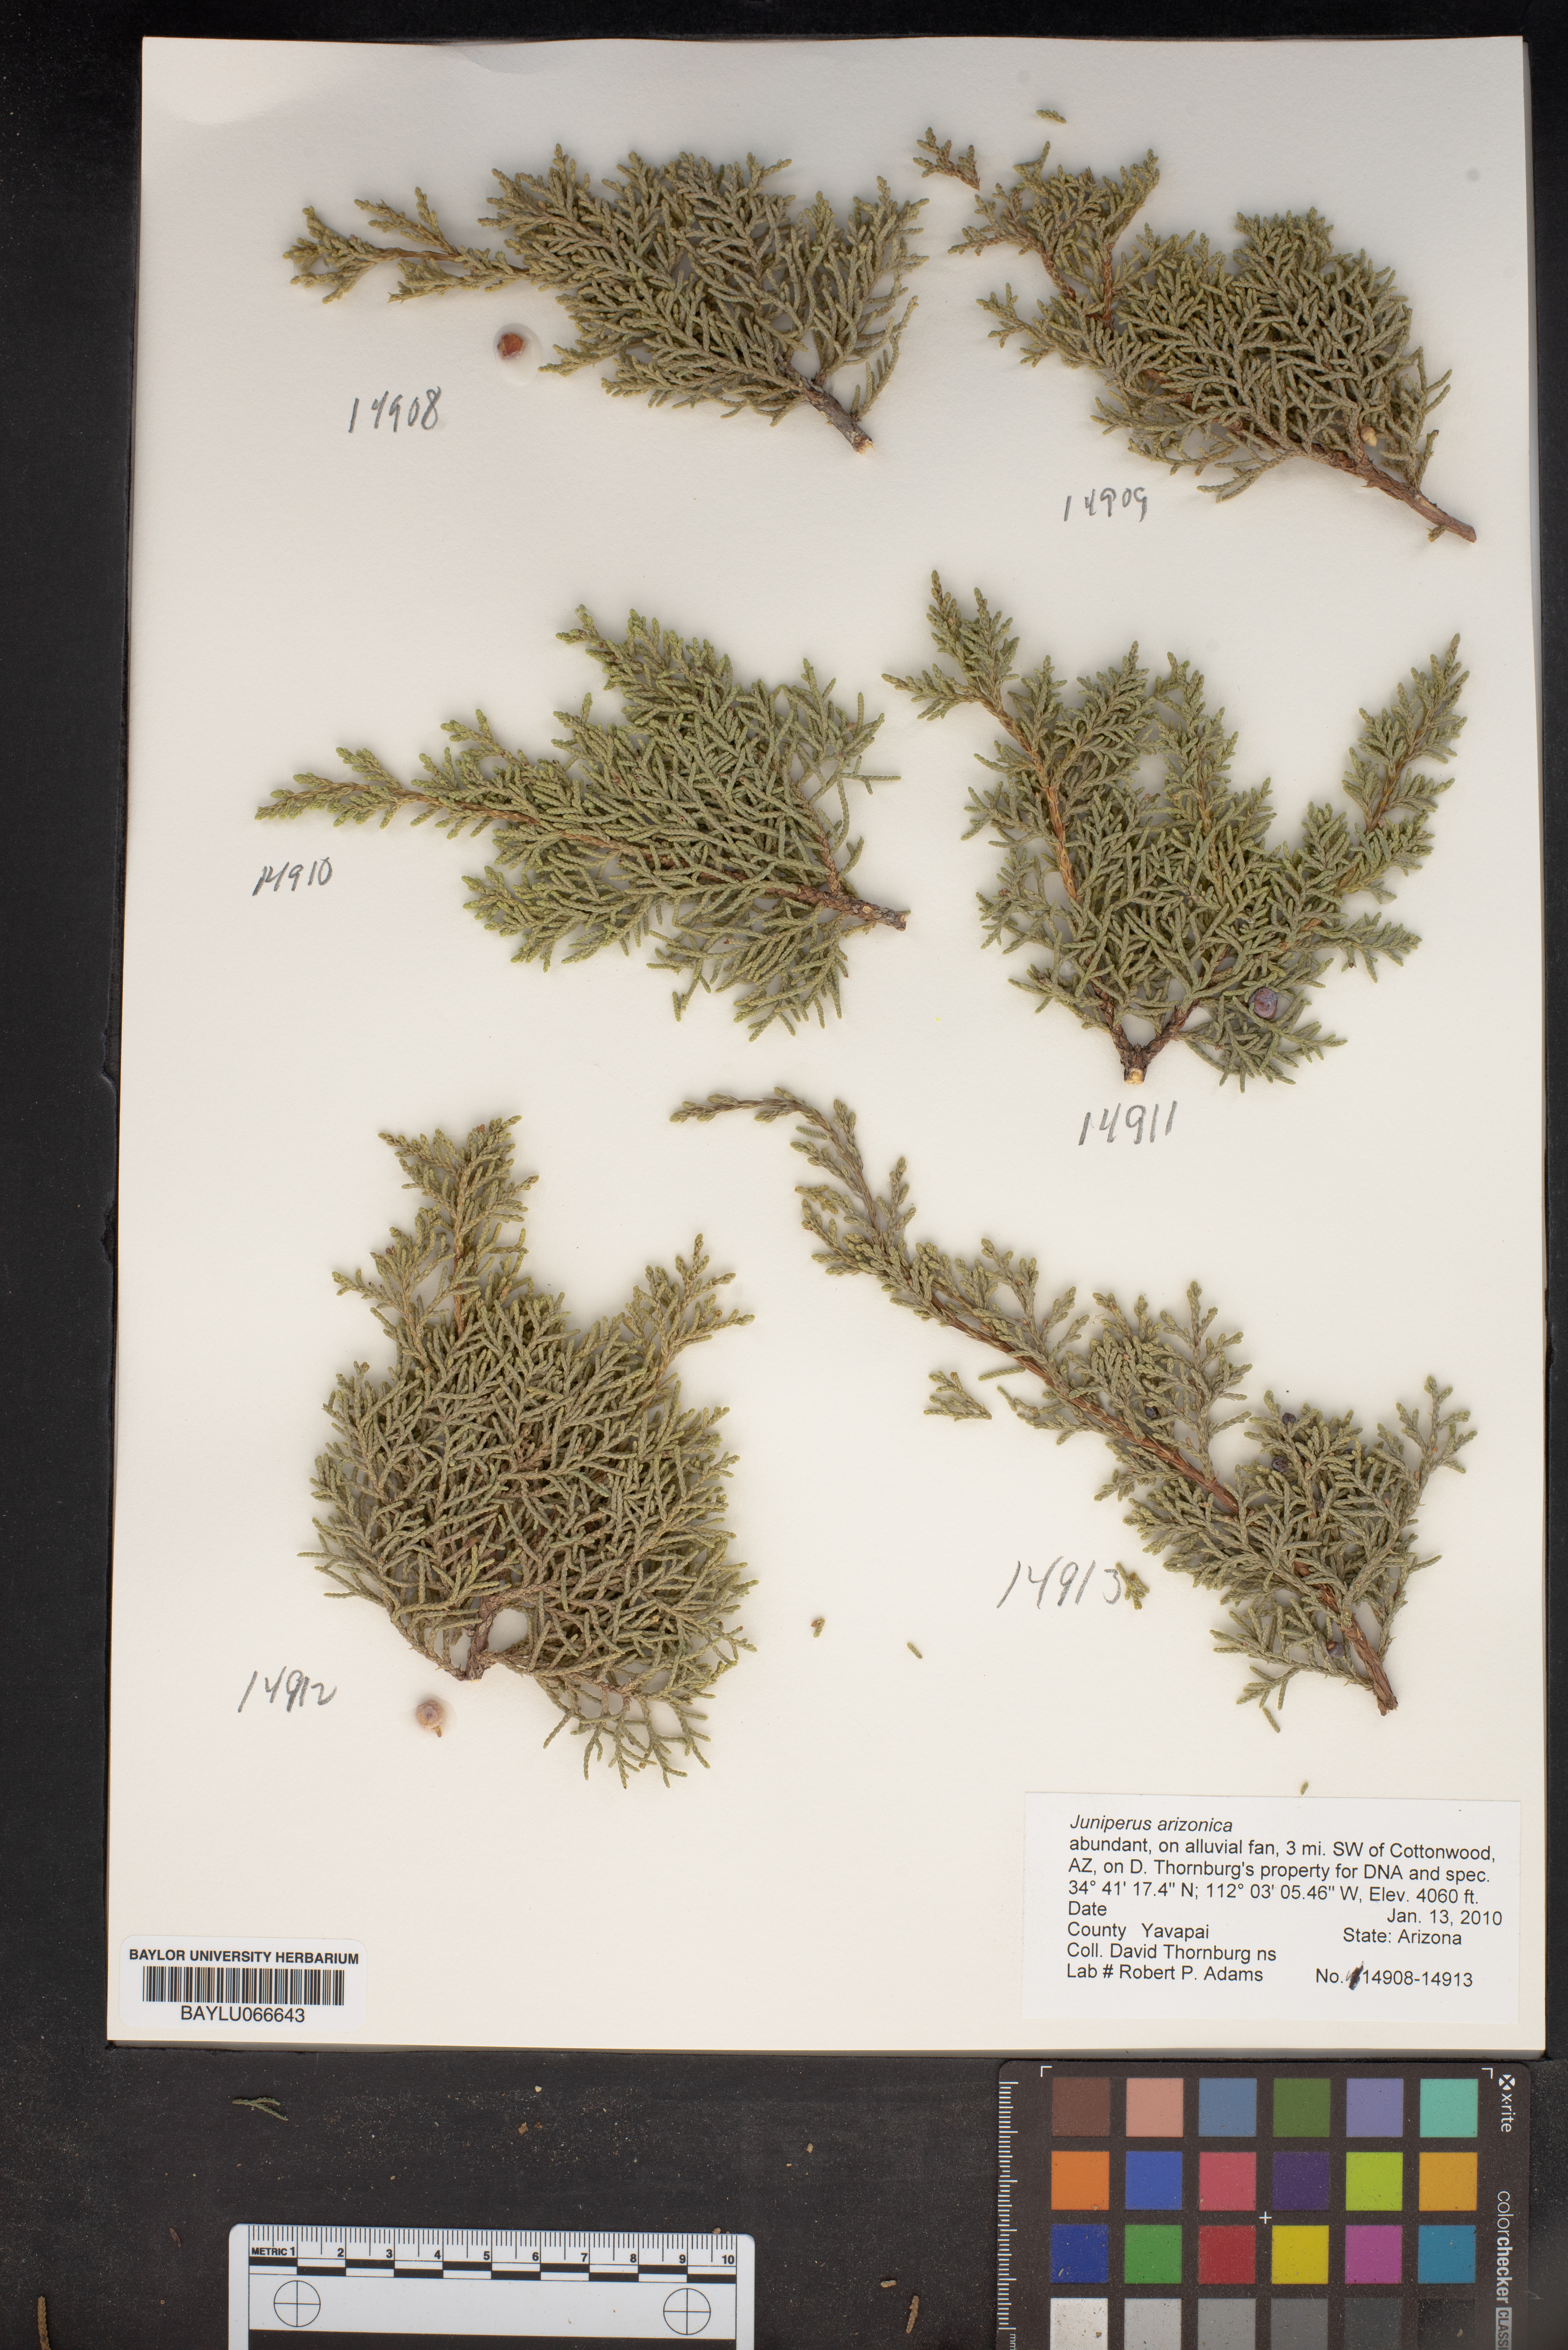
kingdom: Plantae
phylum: Tracheophyta
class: Pinopsida
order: Pinales
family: Cupressaceae
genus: Juniperus
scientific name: Juniperus arizonica
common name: Arizona juniper
